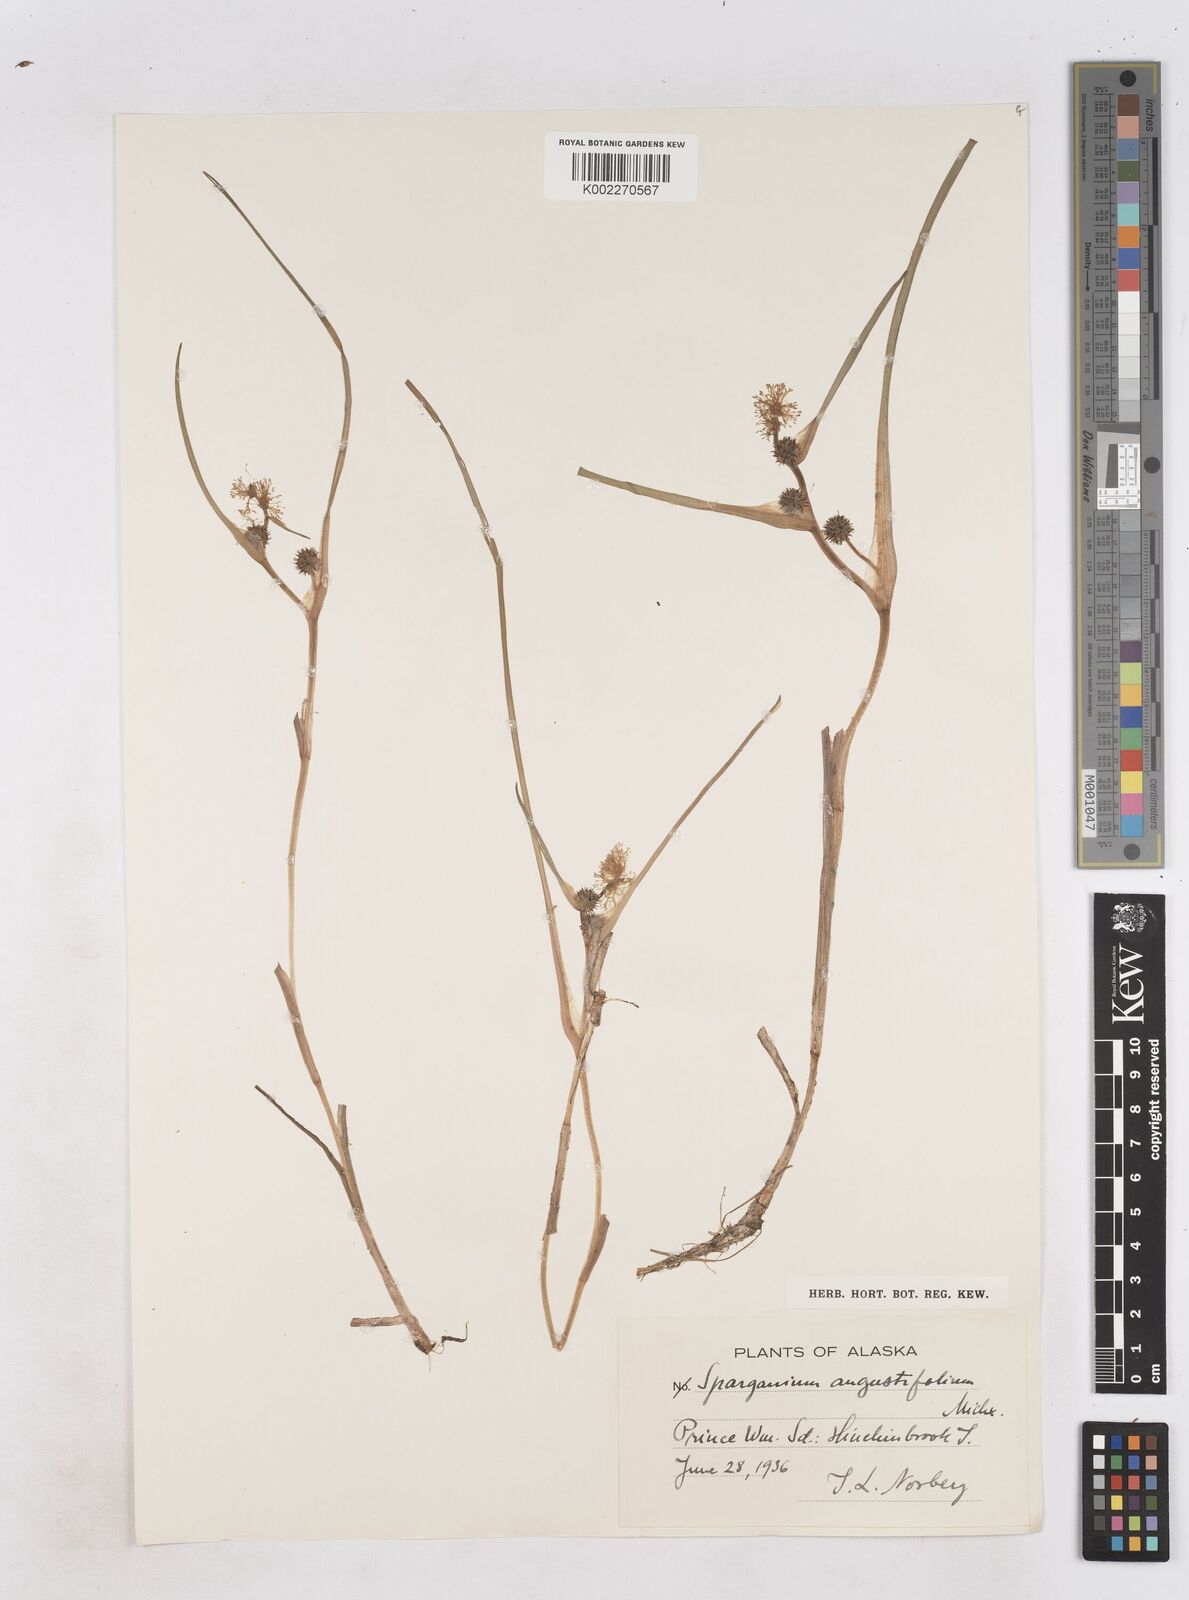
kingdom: Plantae
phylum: Tracheophyta
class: Liliopsida
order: Poales
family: Typhaceae
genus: Sparganium
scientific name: Sparganium angustifolium
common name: Floating bur-reed
